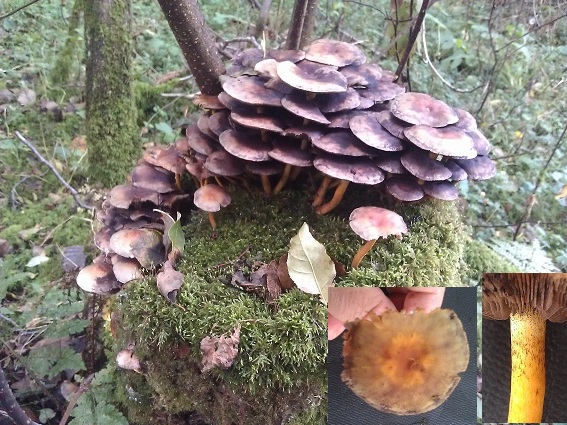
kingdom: Fungi
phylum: Basidiomycota
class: Agaricomycetes
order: Agaricales
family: Strophariaceae
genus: Hypholoma
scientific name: Hypholoma fasciculare
